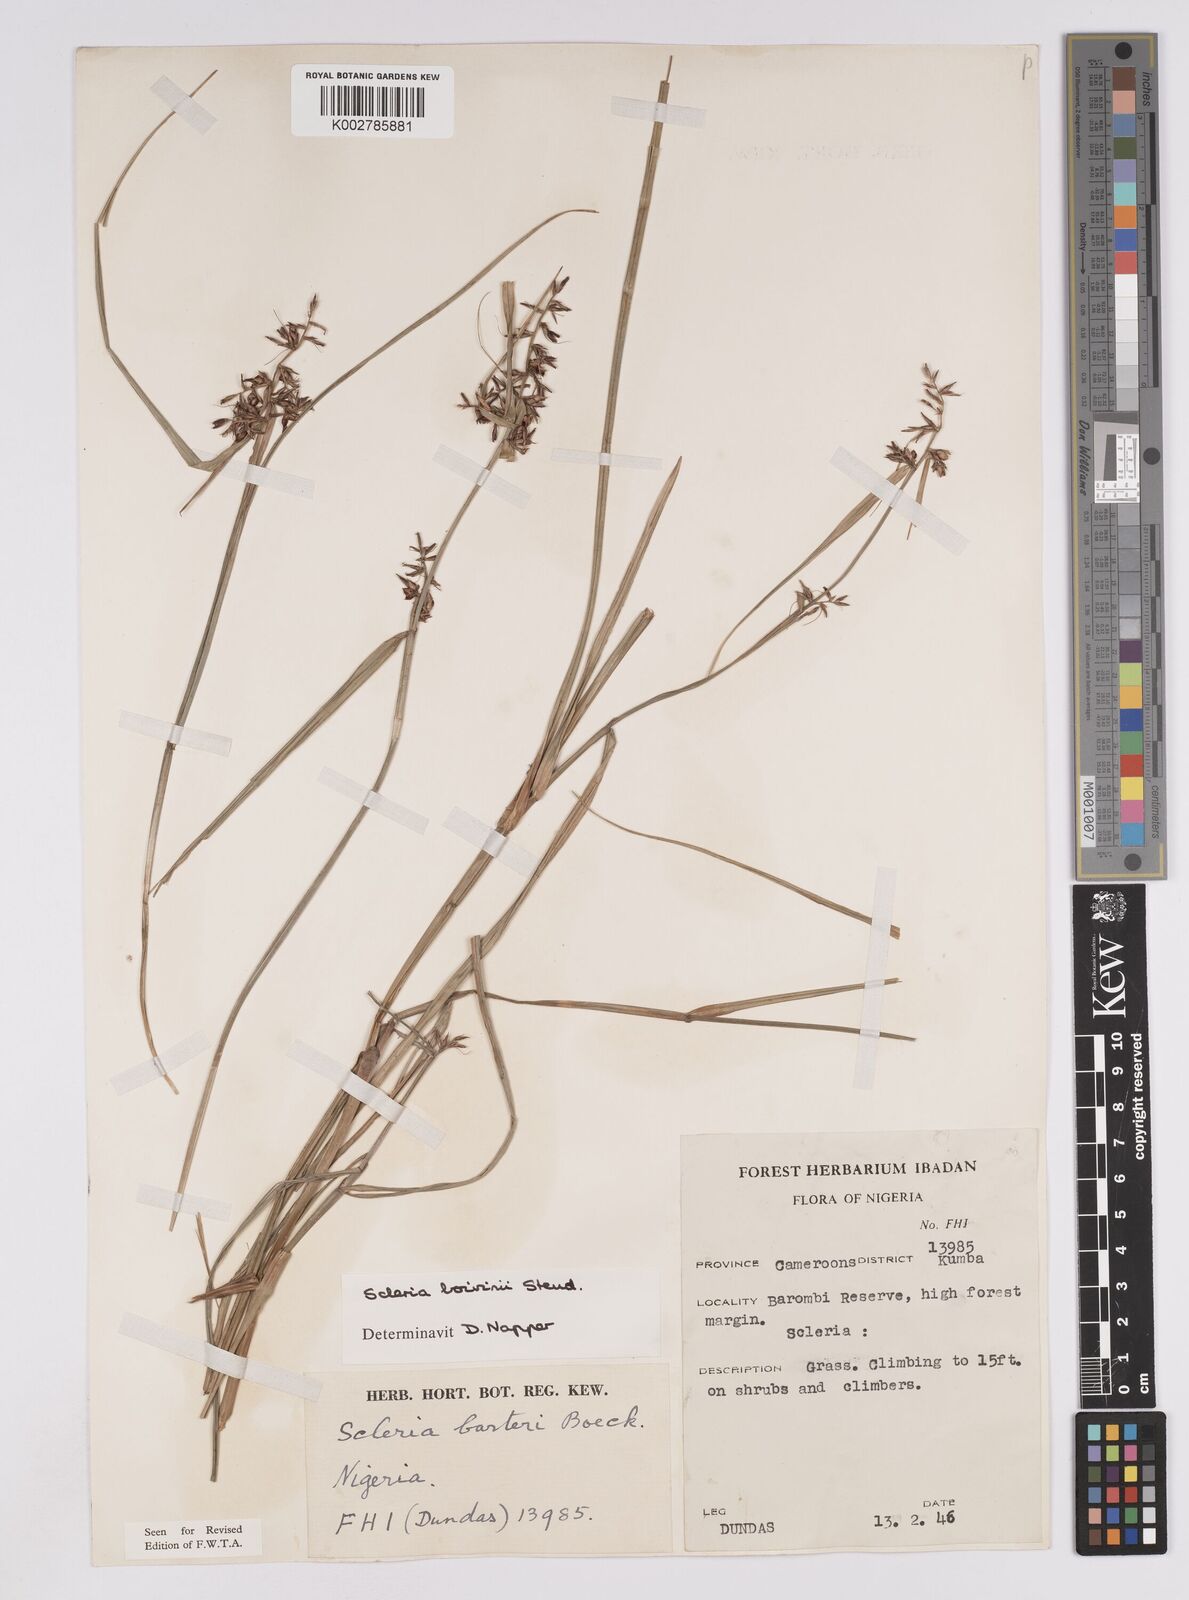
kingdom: Plantae
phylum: Tracheophyta
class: Liliopsida
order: Poales
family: Cyperaceae
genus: Scleria
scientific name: Scleria boivinii
